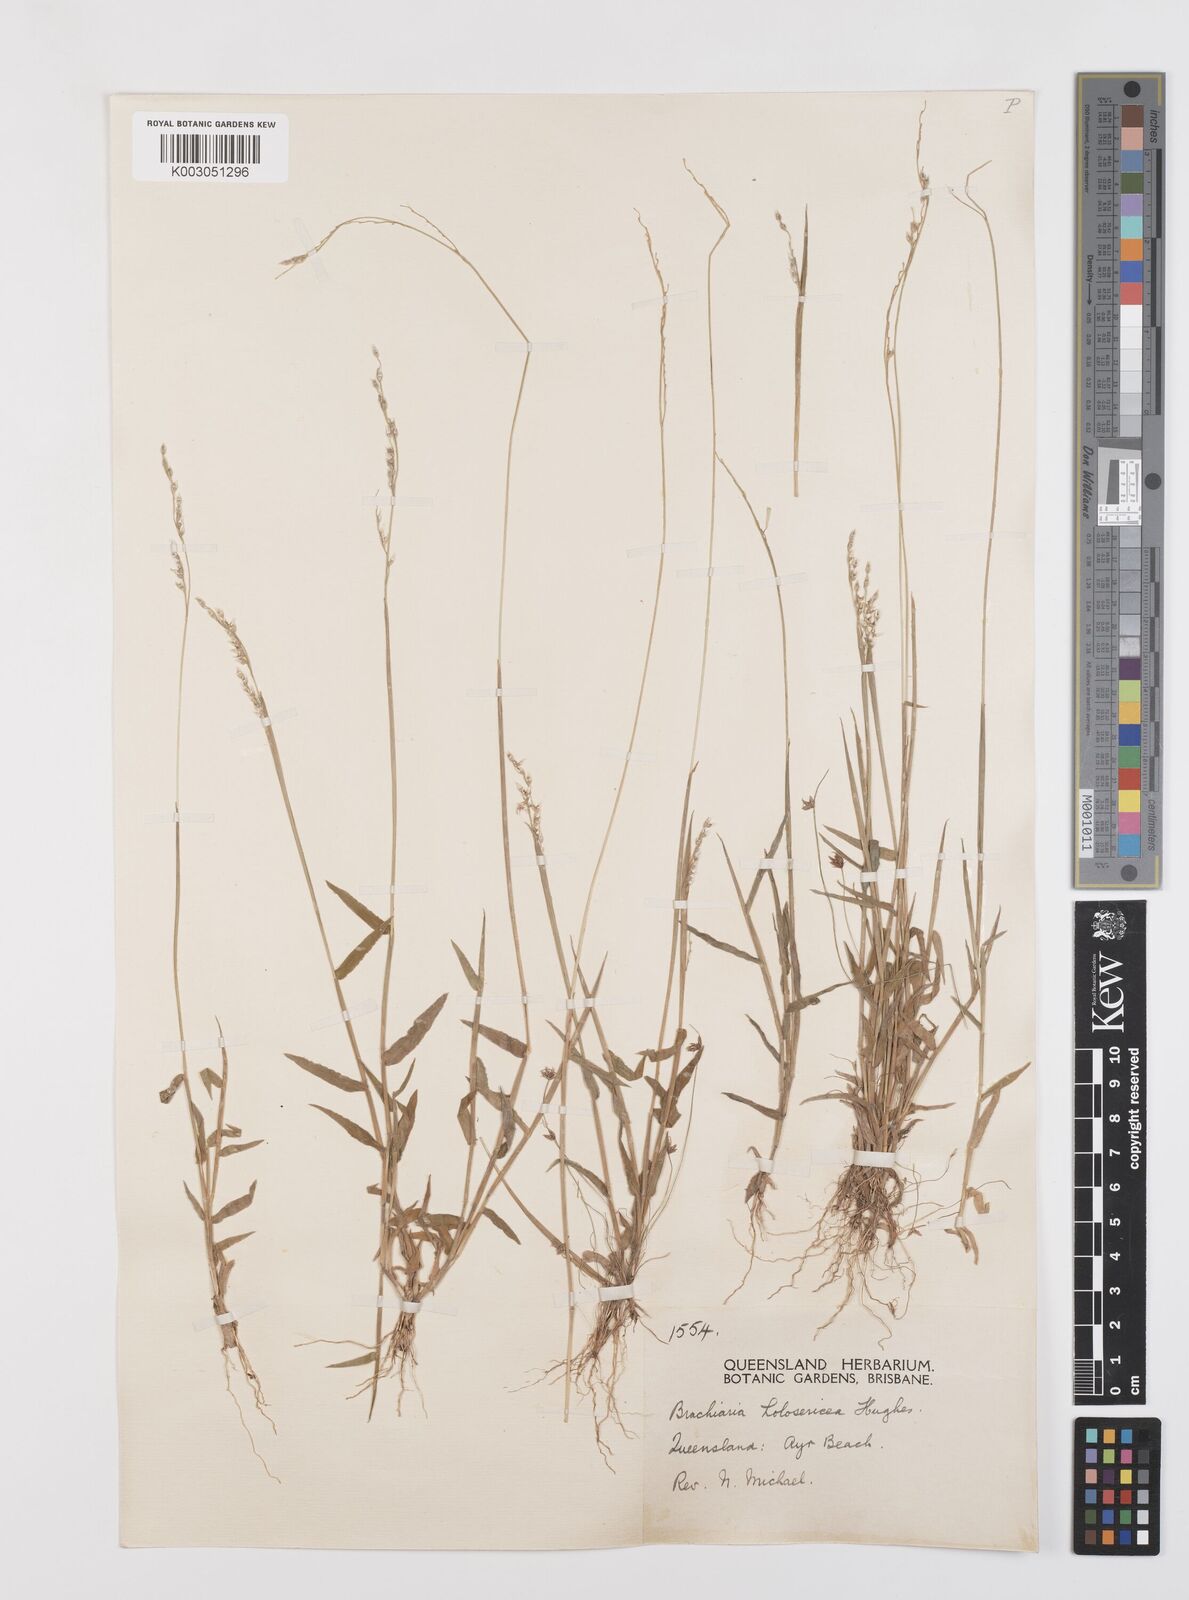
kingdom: Plantae
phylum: Tracheophyta
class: Liliopsida
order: Poales
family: Poaceae
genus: Urochloa
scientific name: Urochloa holosericea
